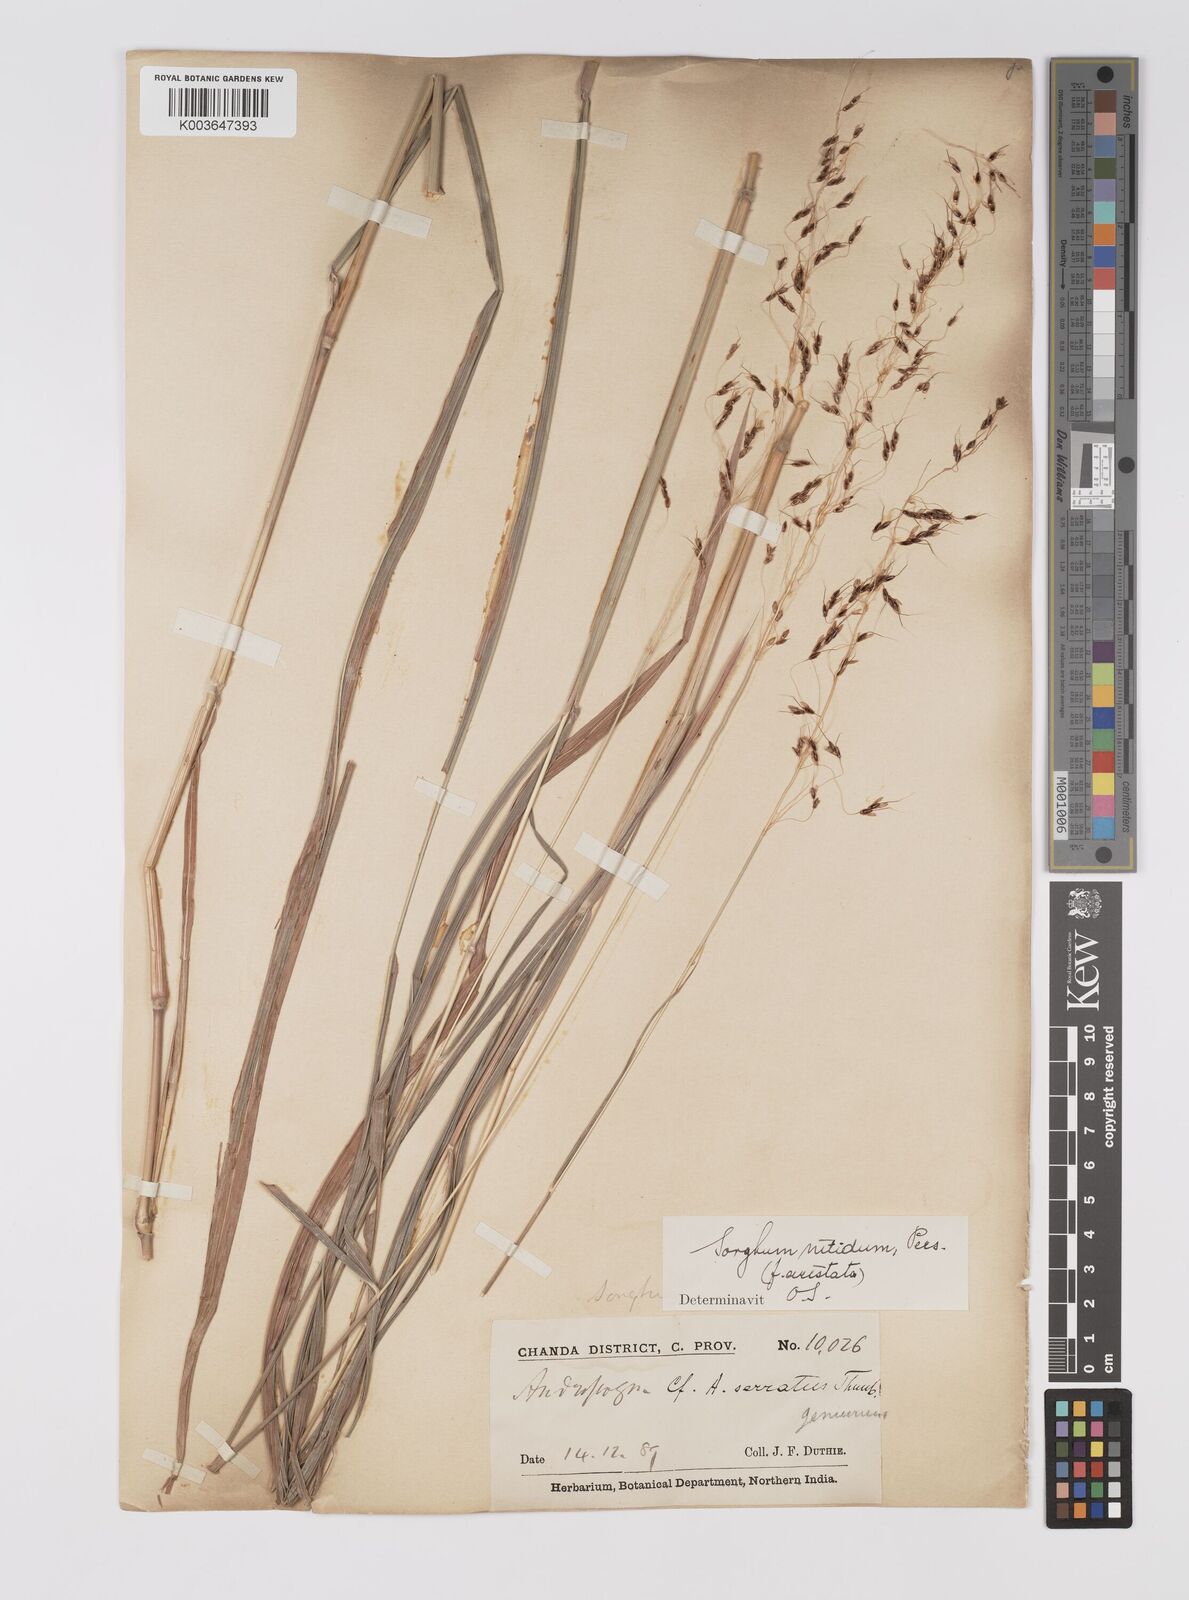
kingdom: Plantae
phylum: Tracheophyta
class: Liliopsida
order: Poales
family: Poaceae
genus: Sorghum
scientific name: Sorghum nitidum
